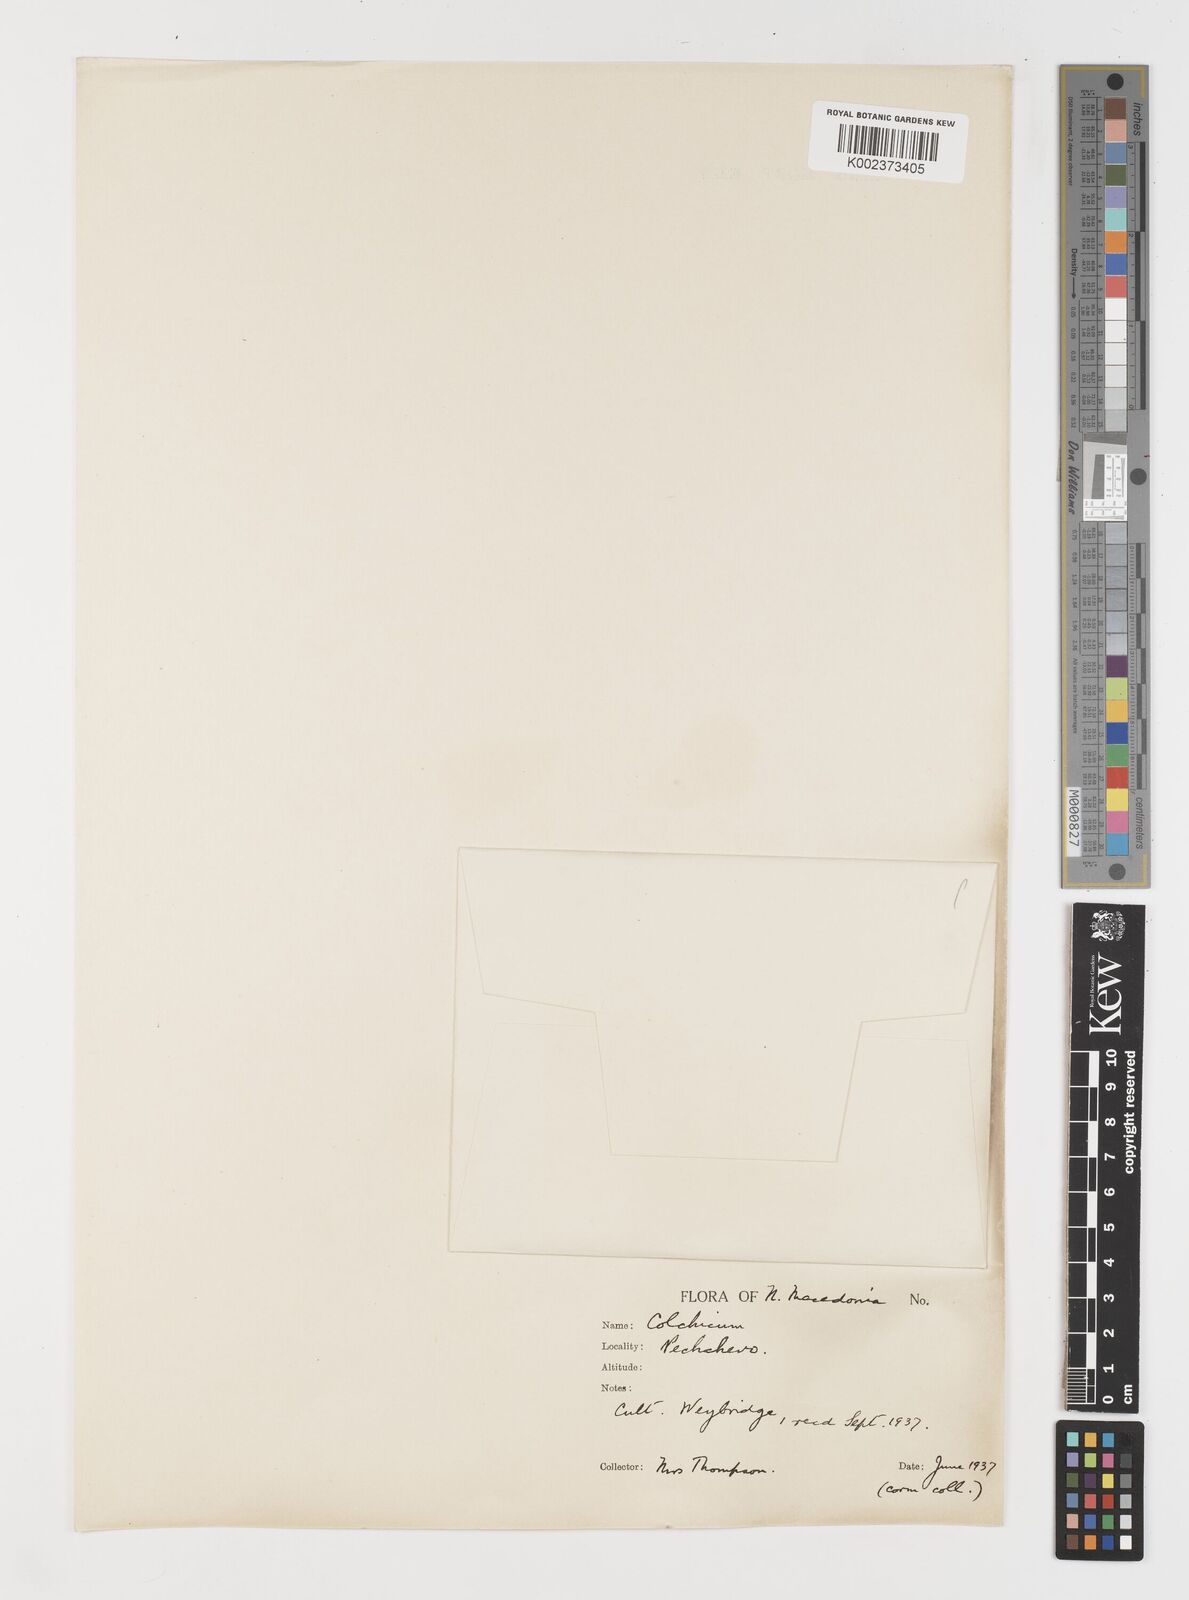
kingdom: Plantae
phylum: Tracheophyta
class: Liliopsida
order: Liliales
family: Colchicaceae
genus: Colchicum
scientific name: Colchicum
